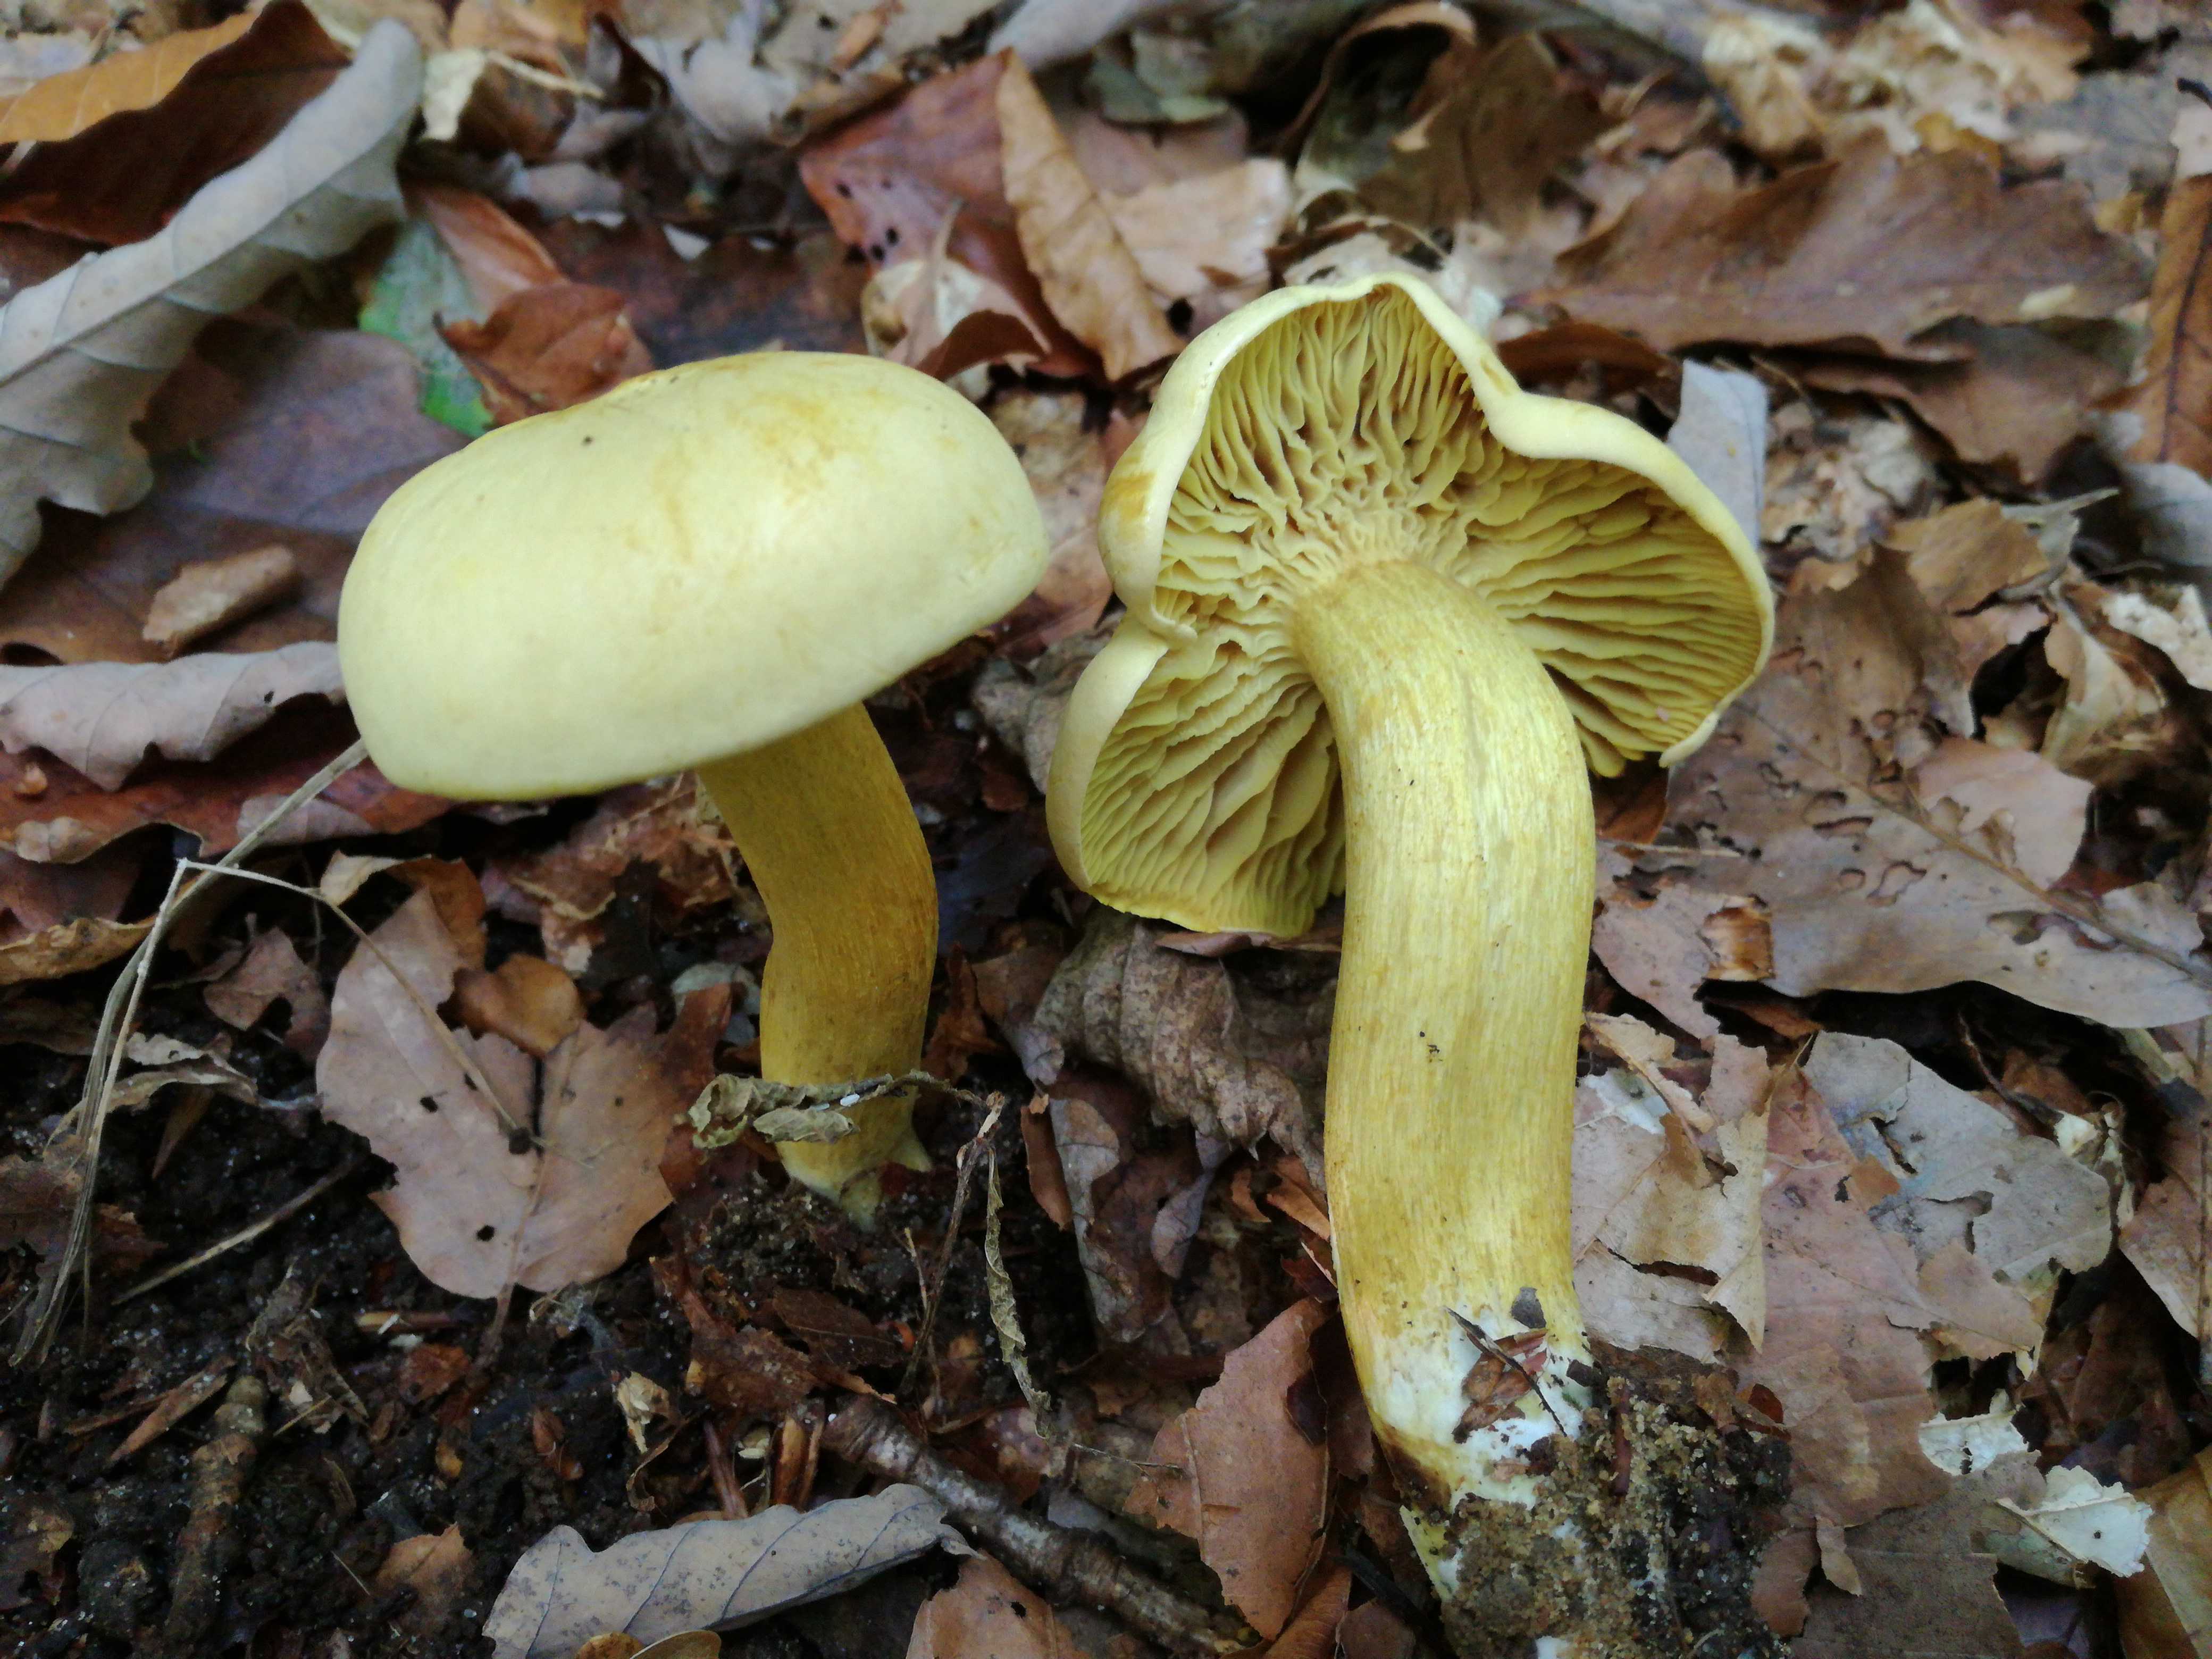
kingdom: Fungi
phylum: Basidiomycota
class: Agaricomycetes
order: Agaricales
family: Tricholomataceae
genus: Tricholoma
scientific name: Tricholoma sulphureum
